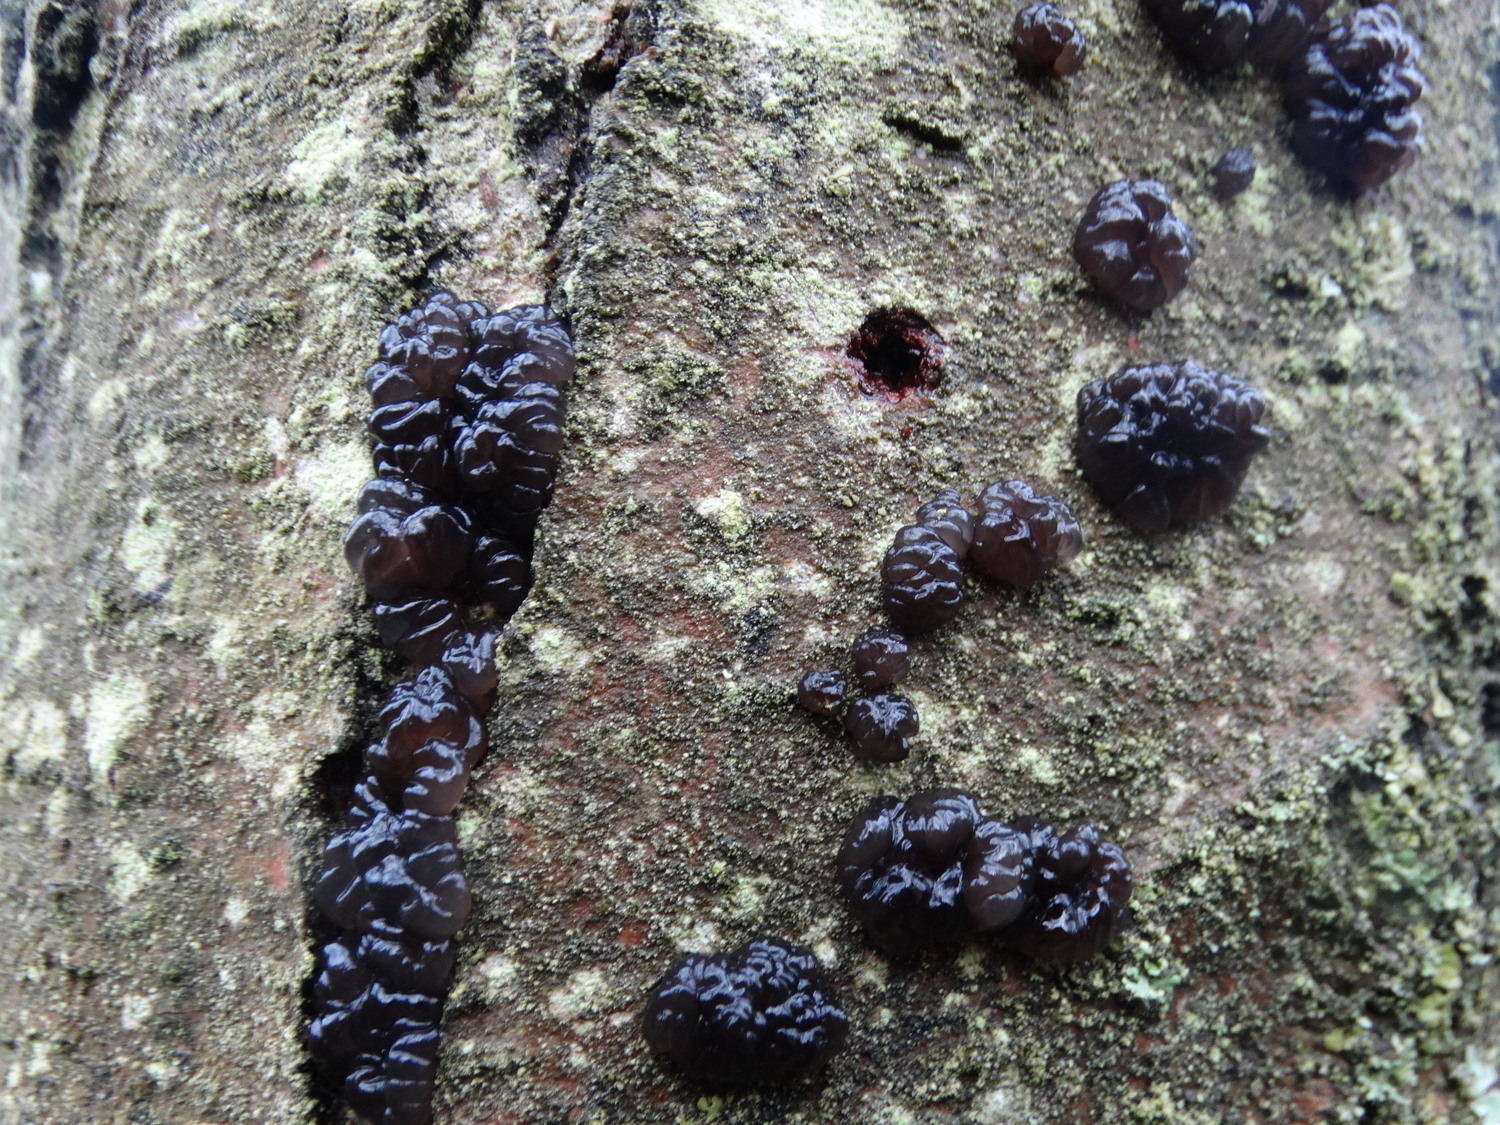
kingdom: Fungi
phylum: Basidiomycota
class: Agaricomycetes
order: Auriculariales
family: Auriculariaceae
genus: Exidia
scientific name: Exidia nigricans
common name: almindelig bævretop
